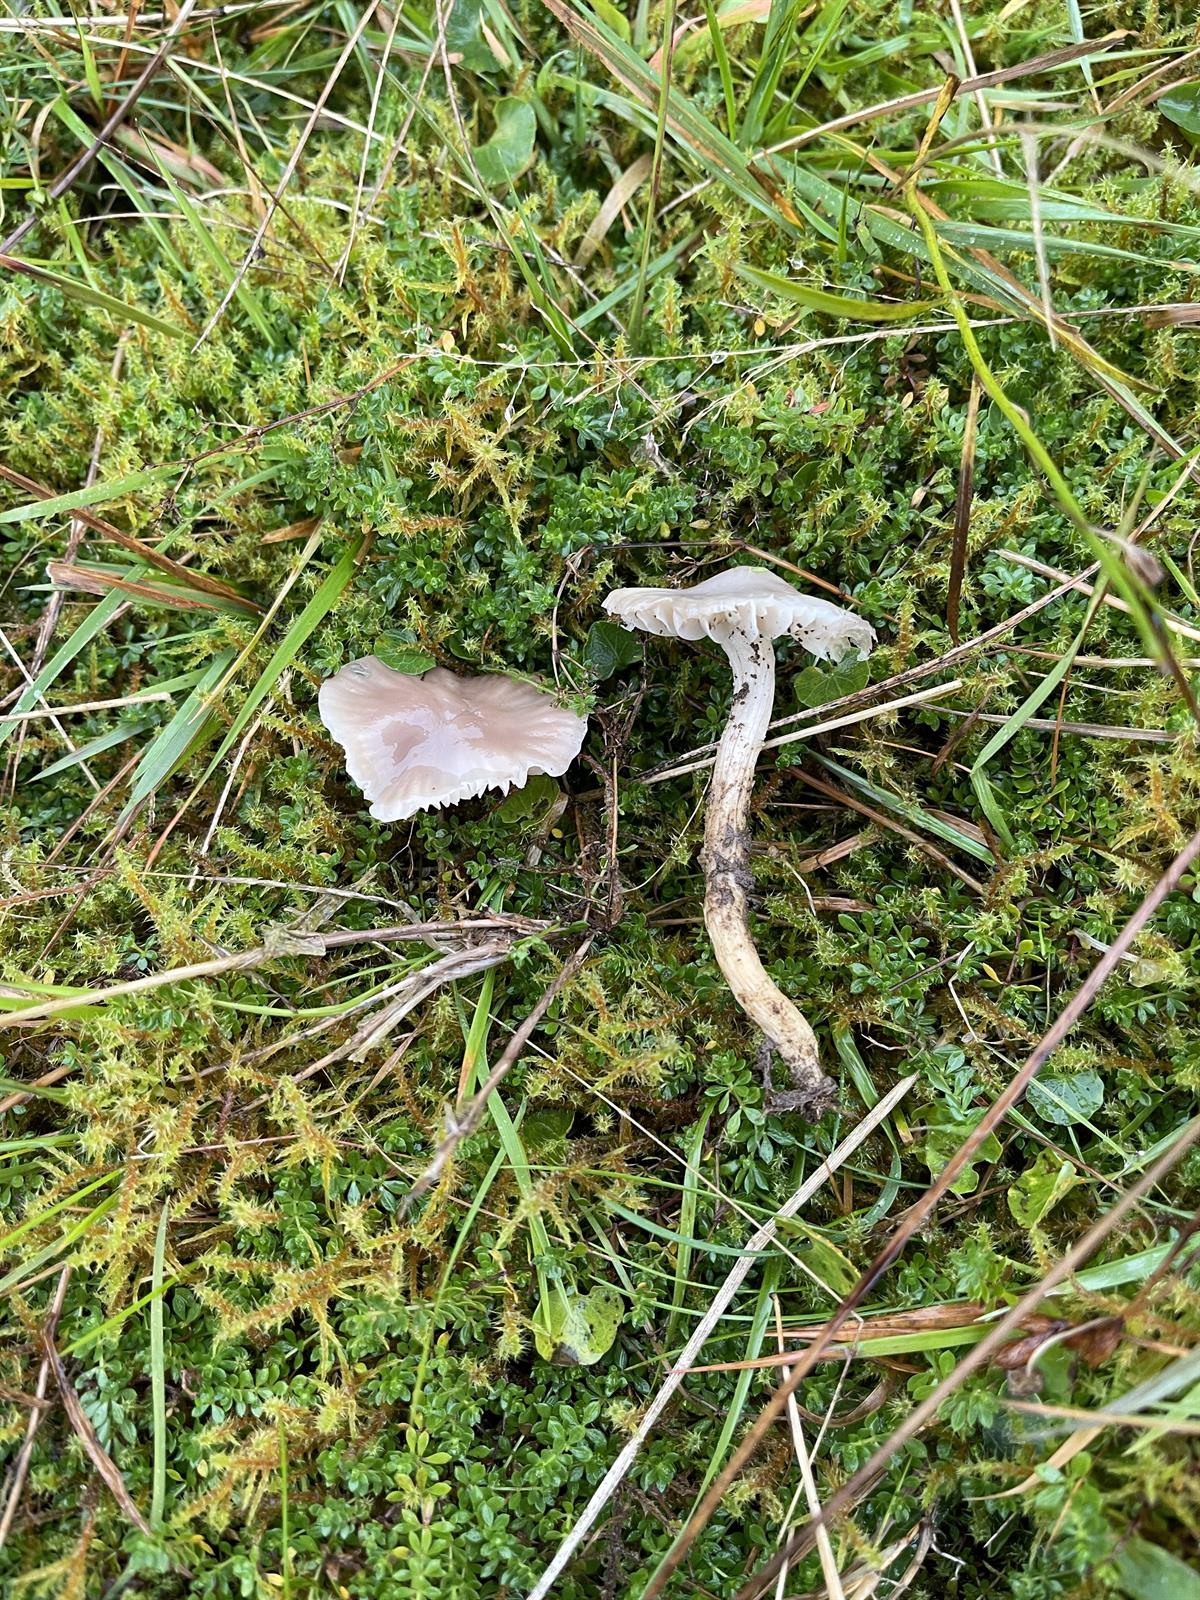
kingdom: Fungi
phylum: Basidiomycota
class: Agaricomycetes
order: Agaricales
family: Hygrophoraceae
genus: Cuphophyllus
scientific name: Cuphophyllus flavipes
